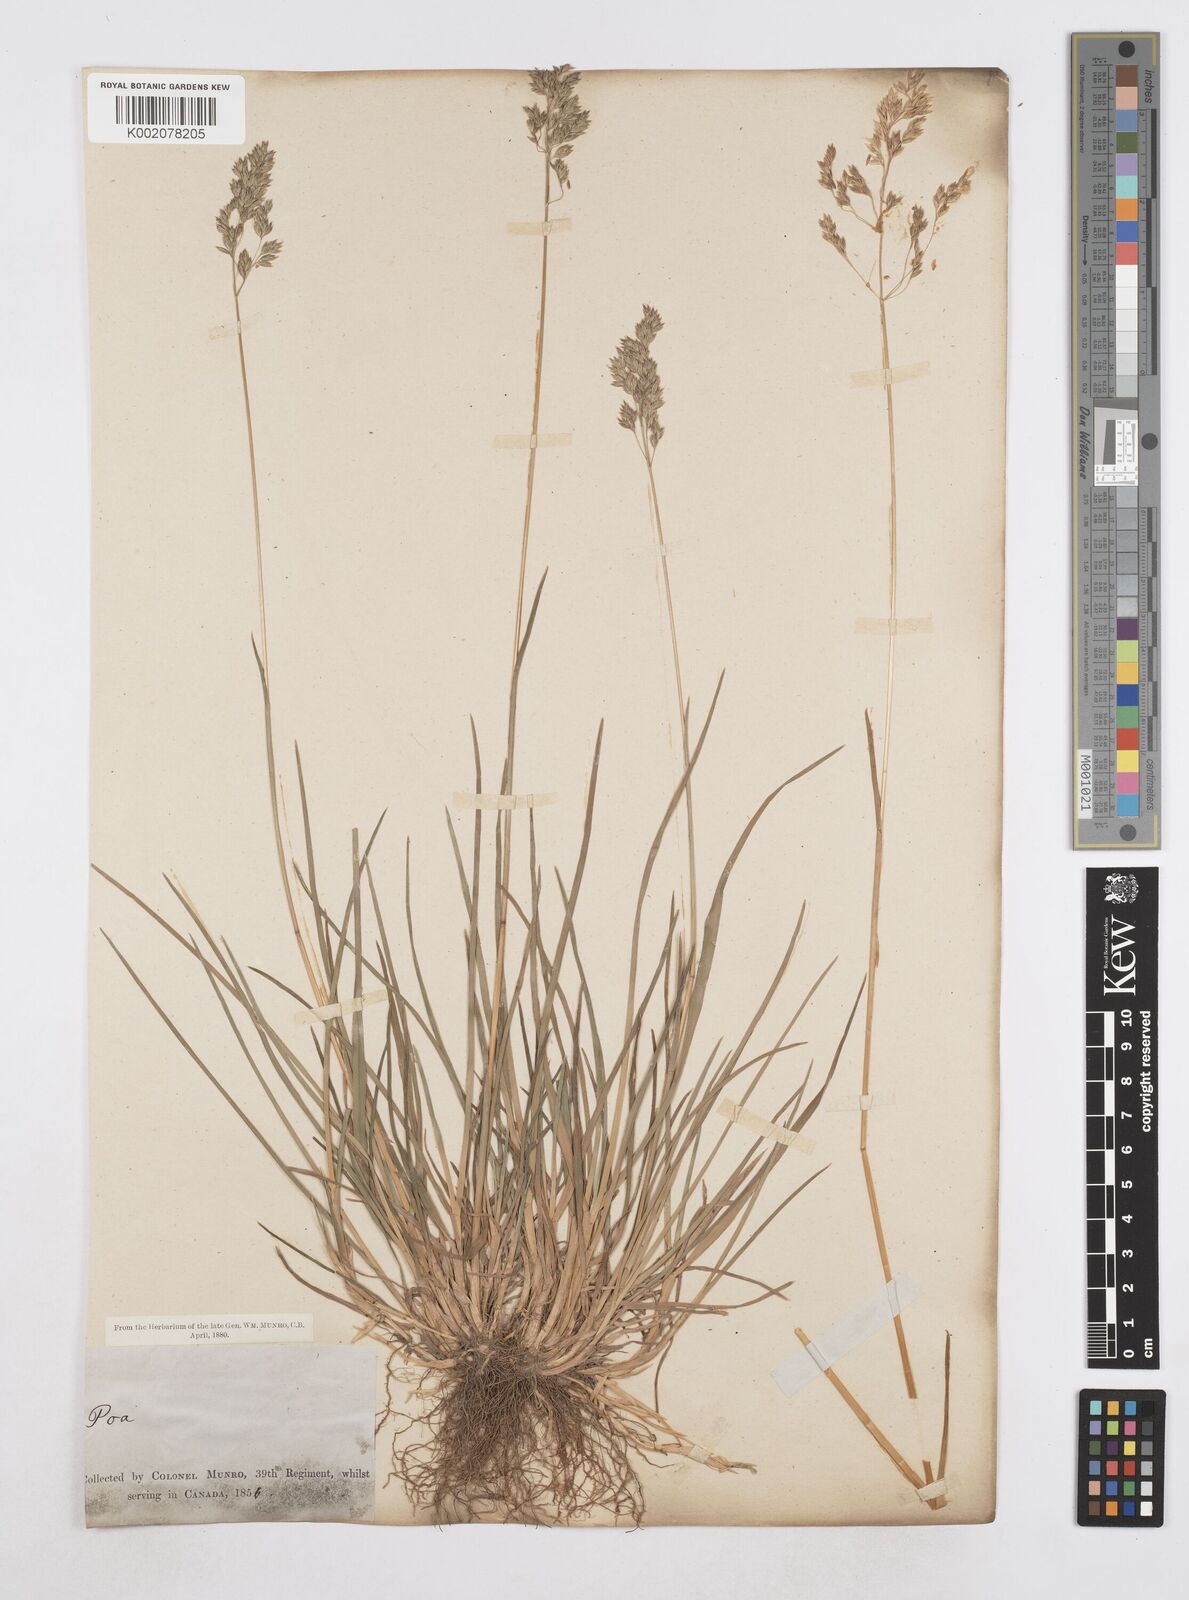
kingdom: Plantae
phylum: Tracheophyta
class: Liliopsida
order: Poales
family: Poaceae
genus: Poa
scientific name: Poa
